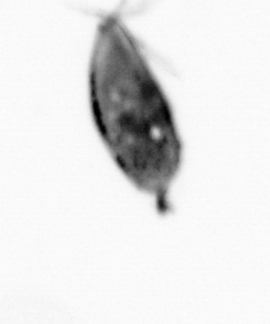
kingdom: Animalia
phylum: Arthropoda
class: Maxillopoda
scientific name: Maxillopoda
